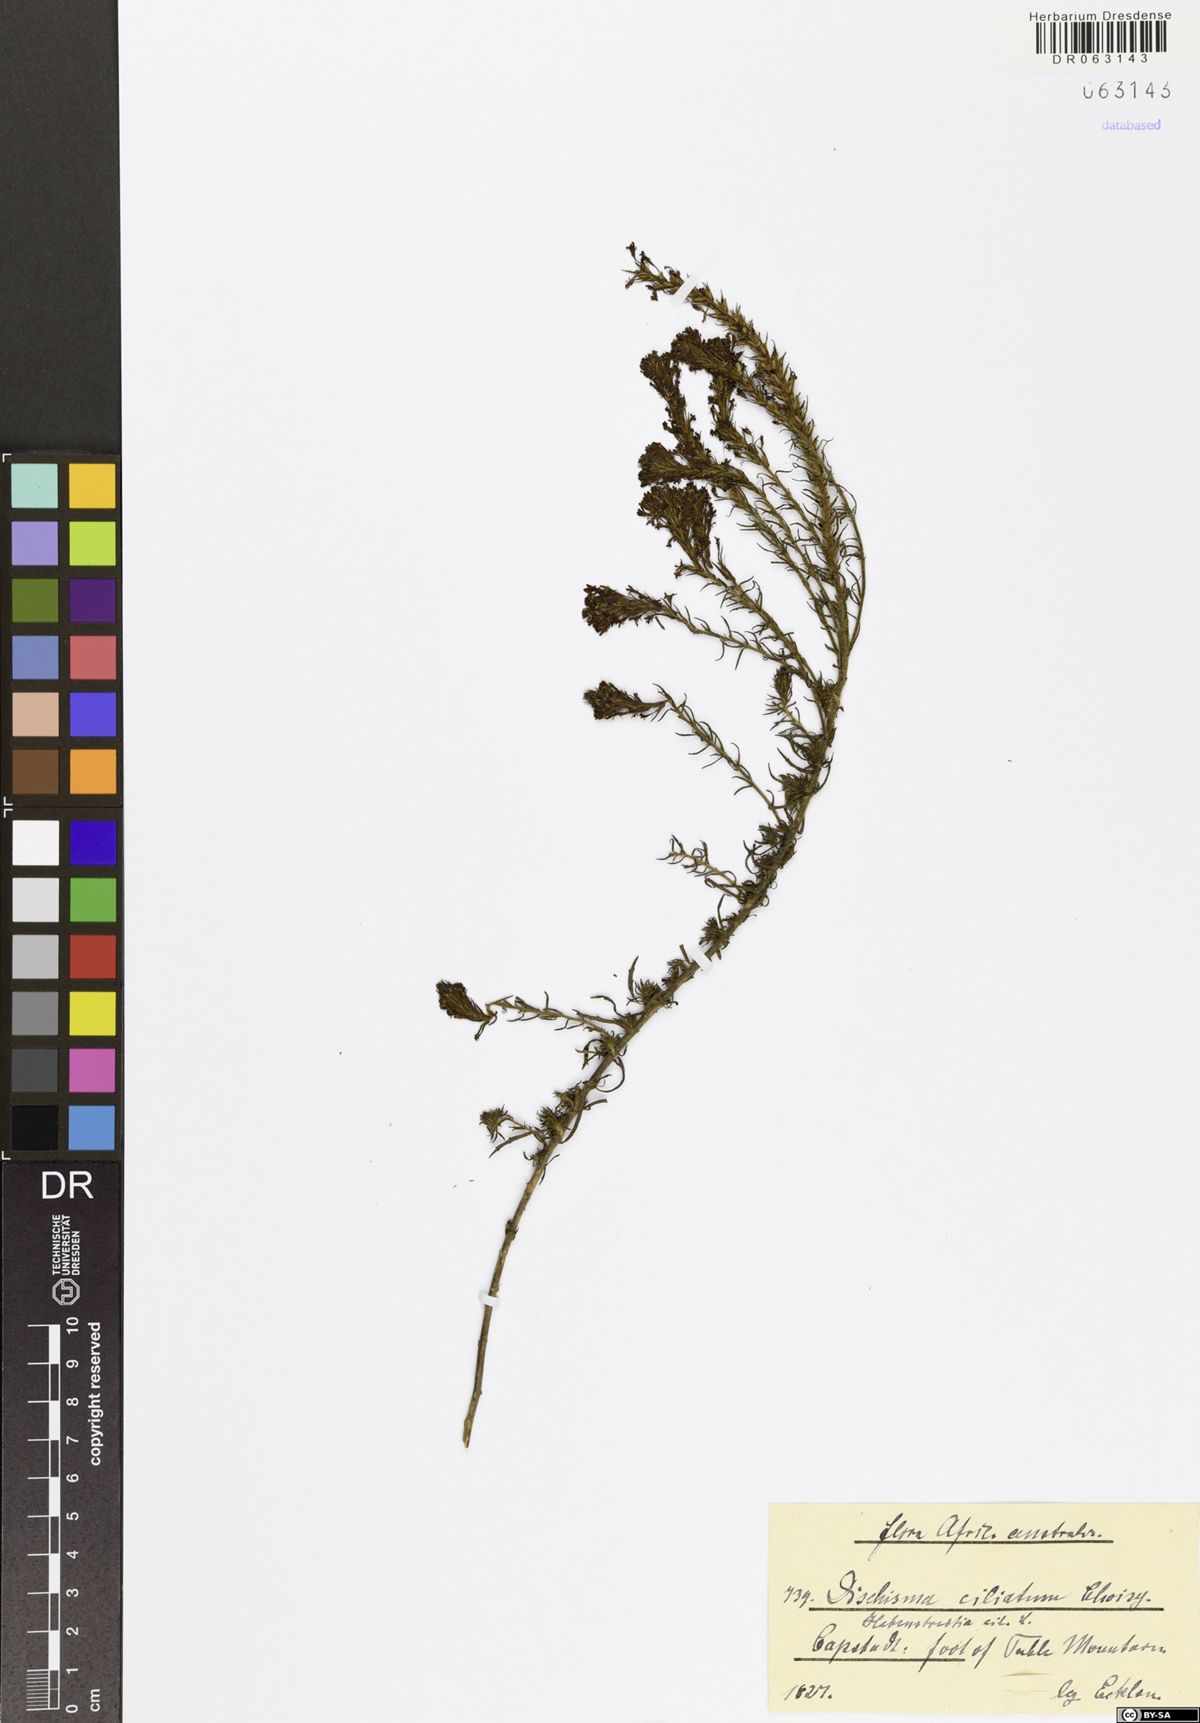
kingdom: Plantae
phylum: Tracheophyta
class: Magnoliopsida
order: Lamiales
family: Scrophulariaceae
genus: Dischisma
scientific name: Dischisma ciliatum
